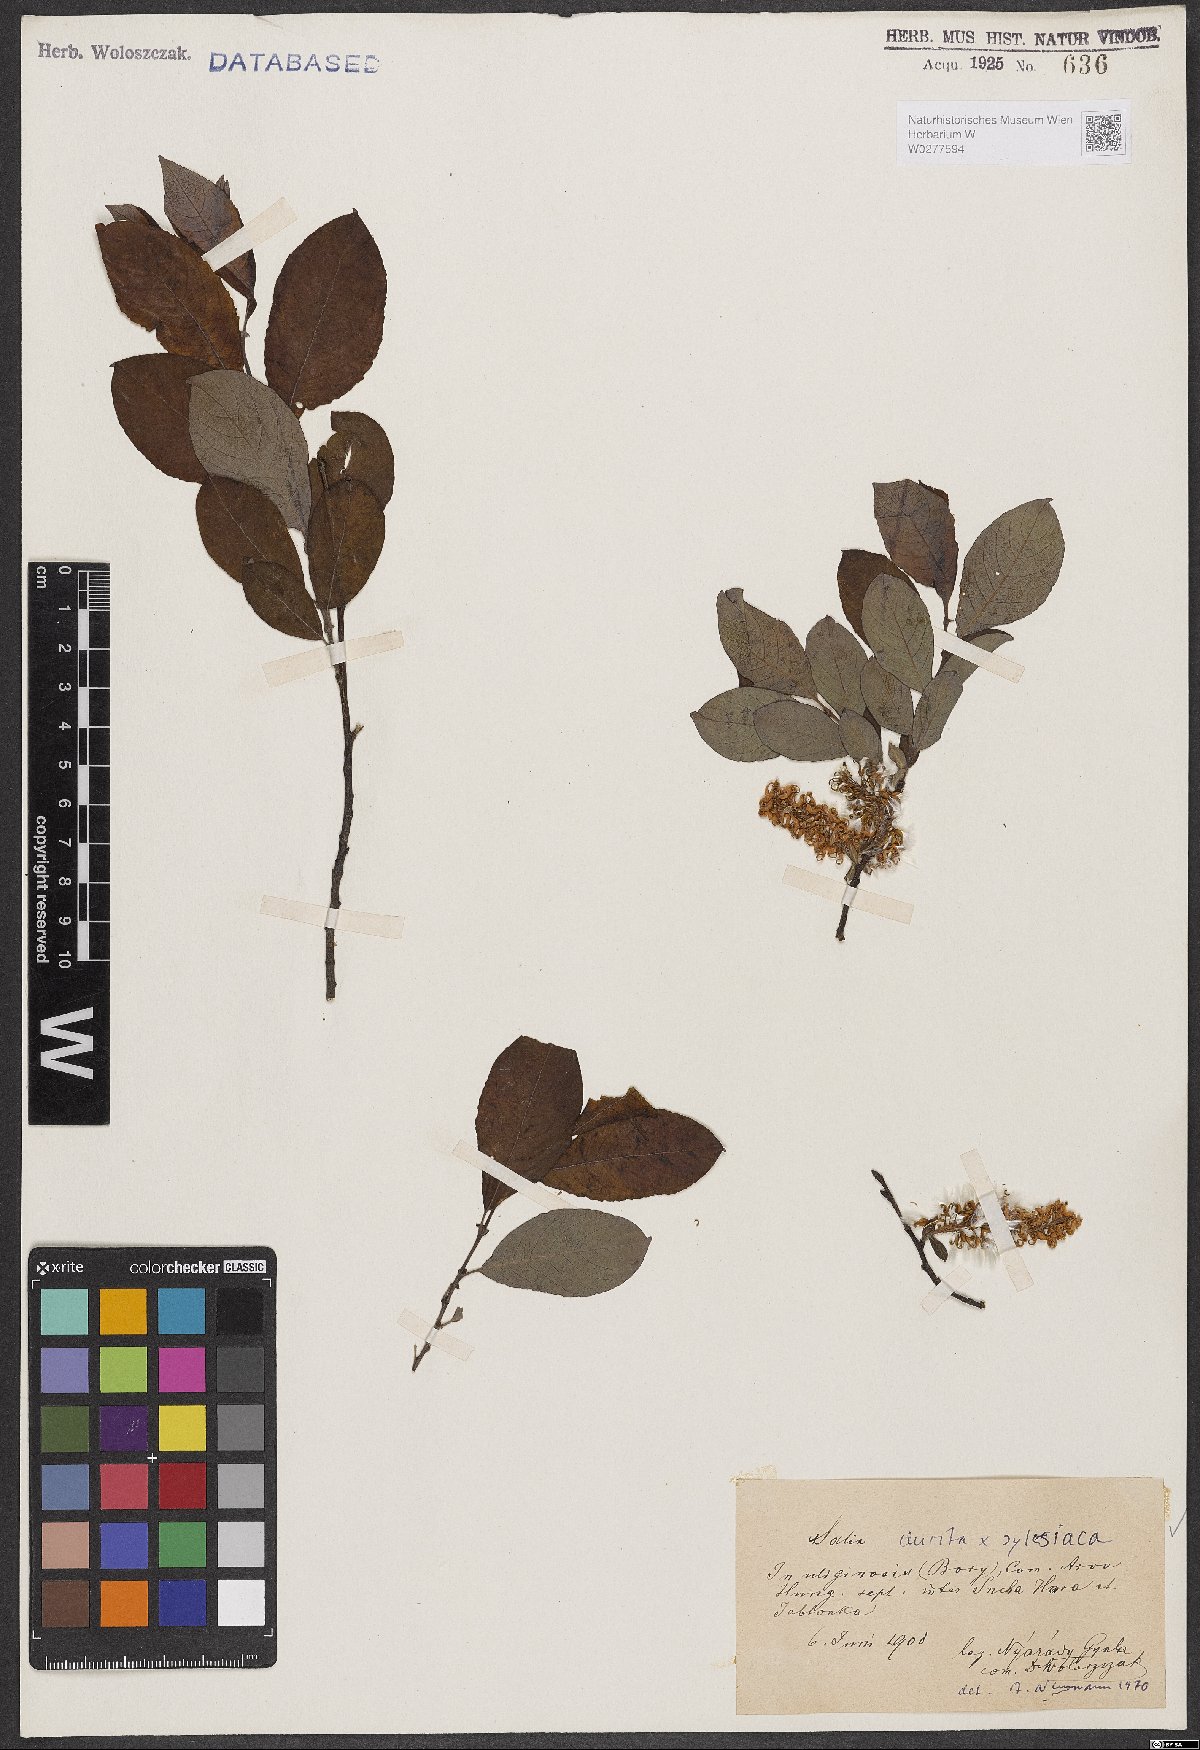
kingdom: Plantae
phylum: Tracheophyta
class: Magnoliopsida
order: Malpighiales
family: Salicaceae
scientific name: Salicaceae
